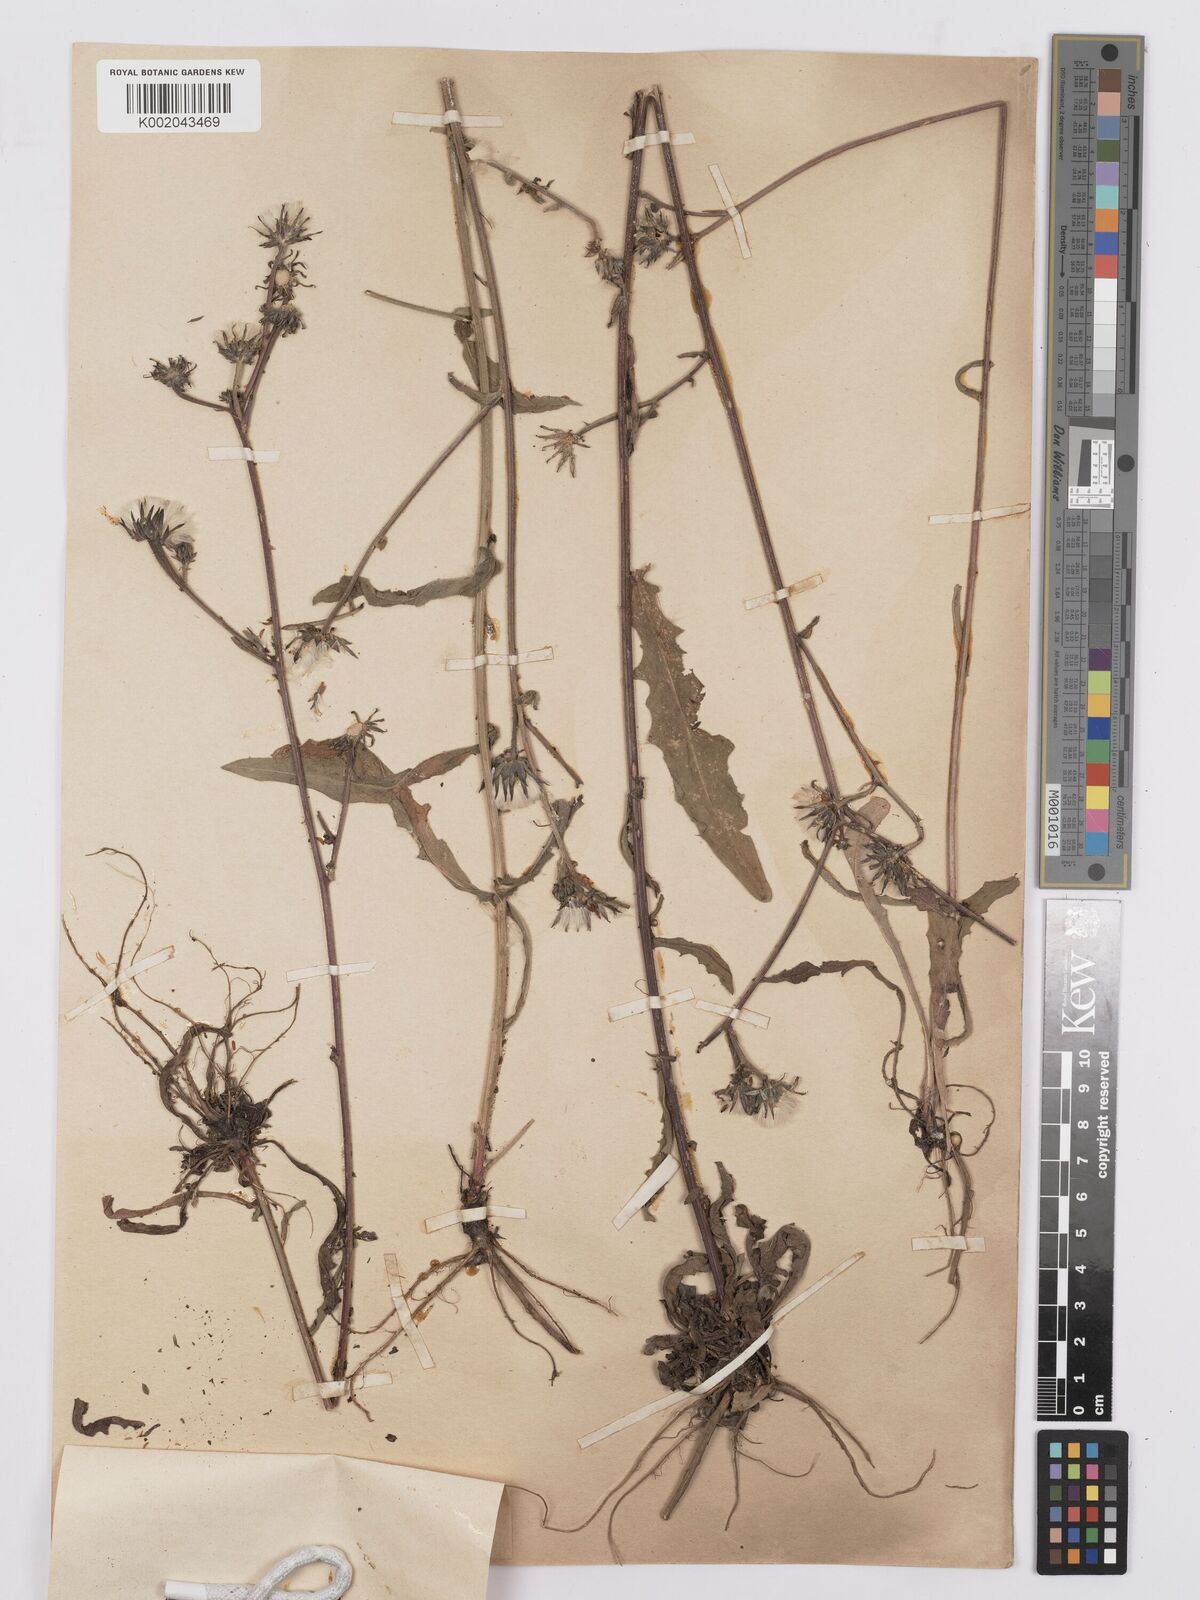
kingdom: Plantae
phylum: Tracheophyta
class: Magnoliopsida
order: Asterales
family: Asteraceae
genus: Picris
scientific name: Picris hieracioides
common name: Hawkweed oxtongue
